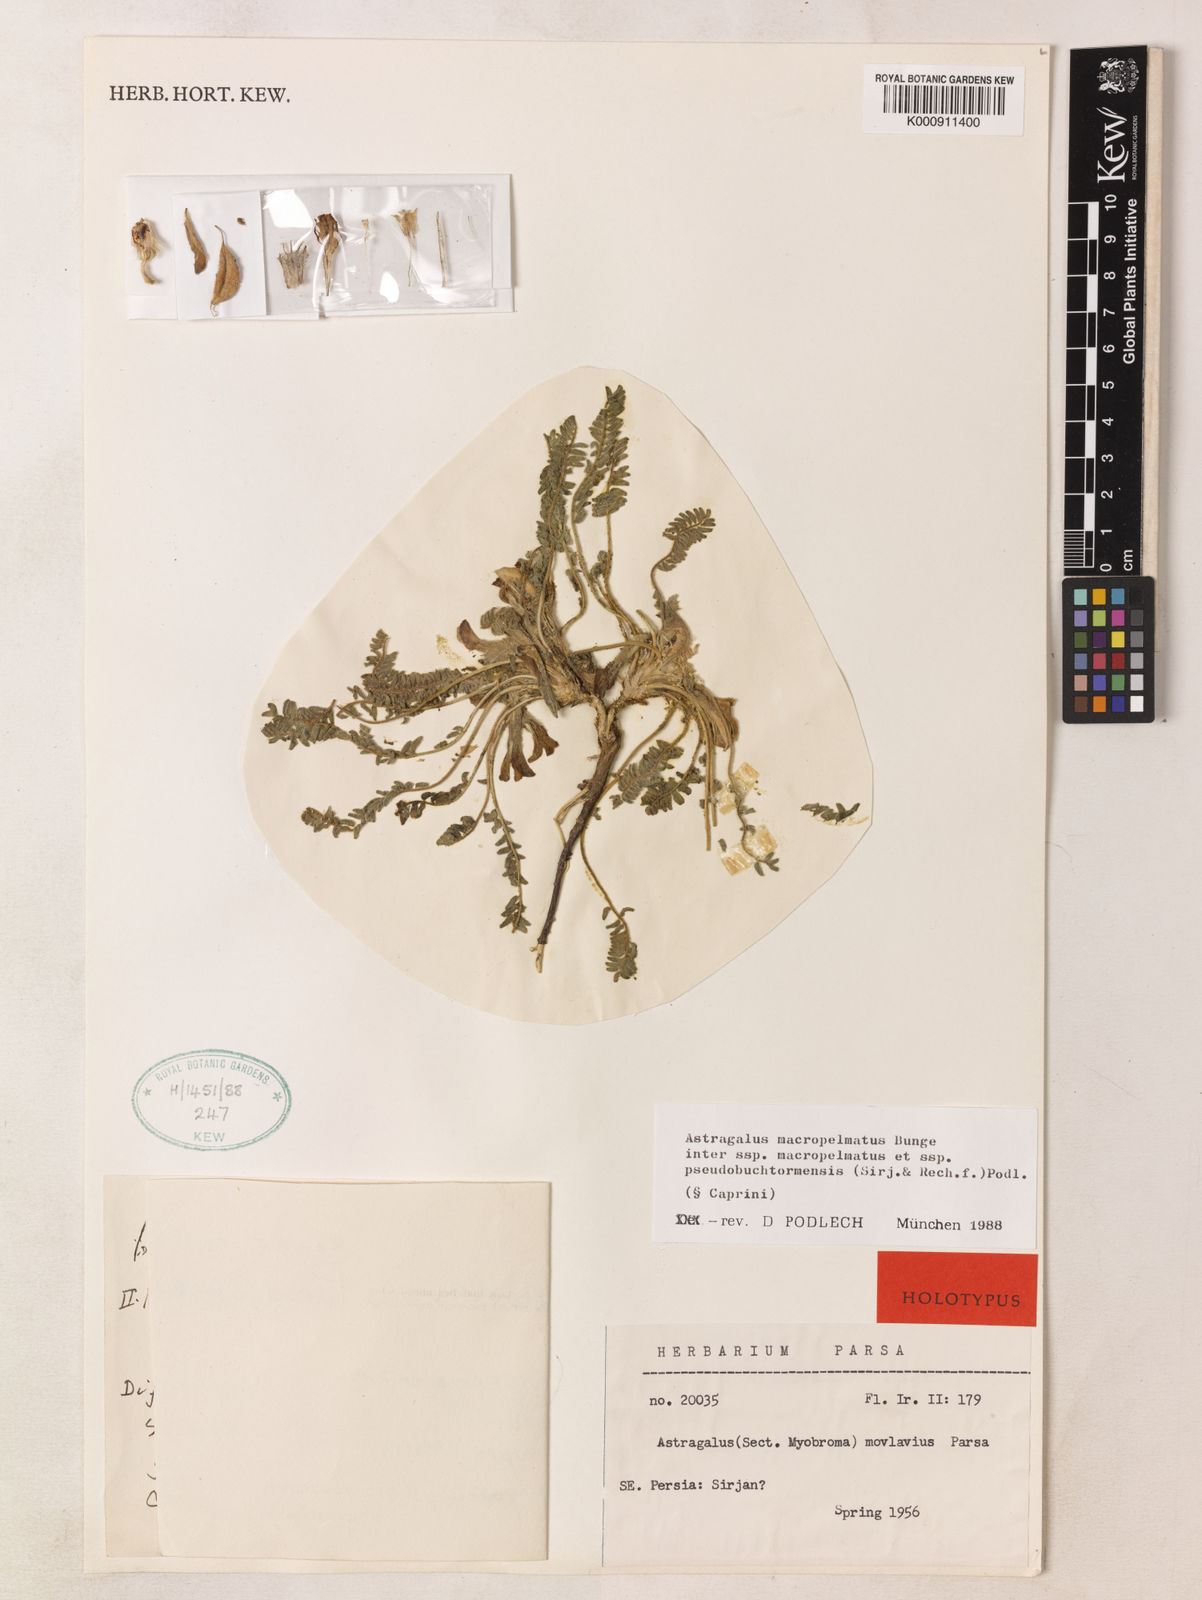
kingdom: Plantae
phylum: Tracheophyta
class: Magnoliopsida
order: Fabales
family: Fabaceae
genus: Astragalus
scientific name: Astragalus macropelmatus
